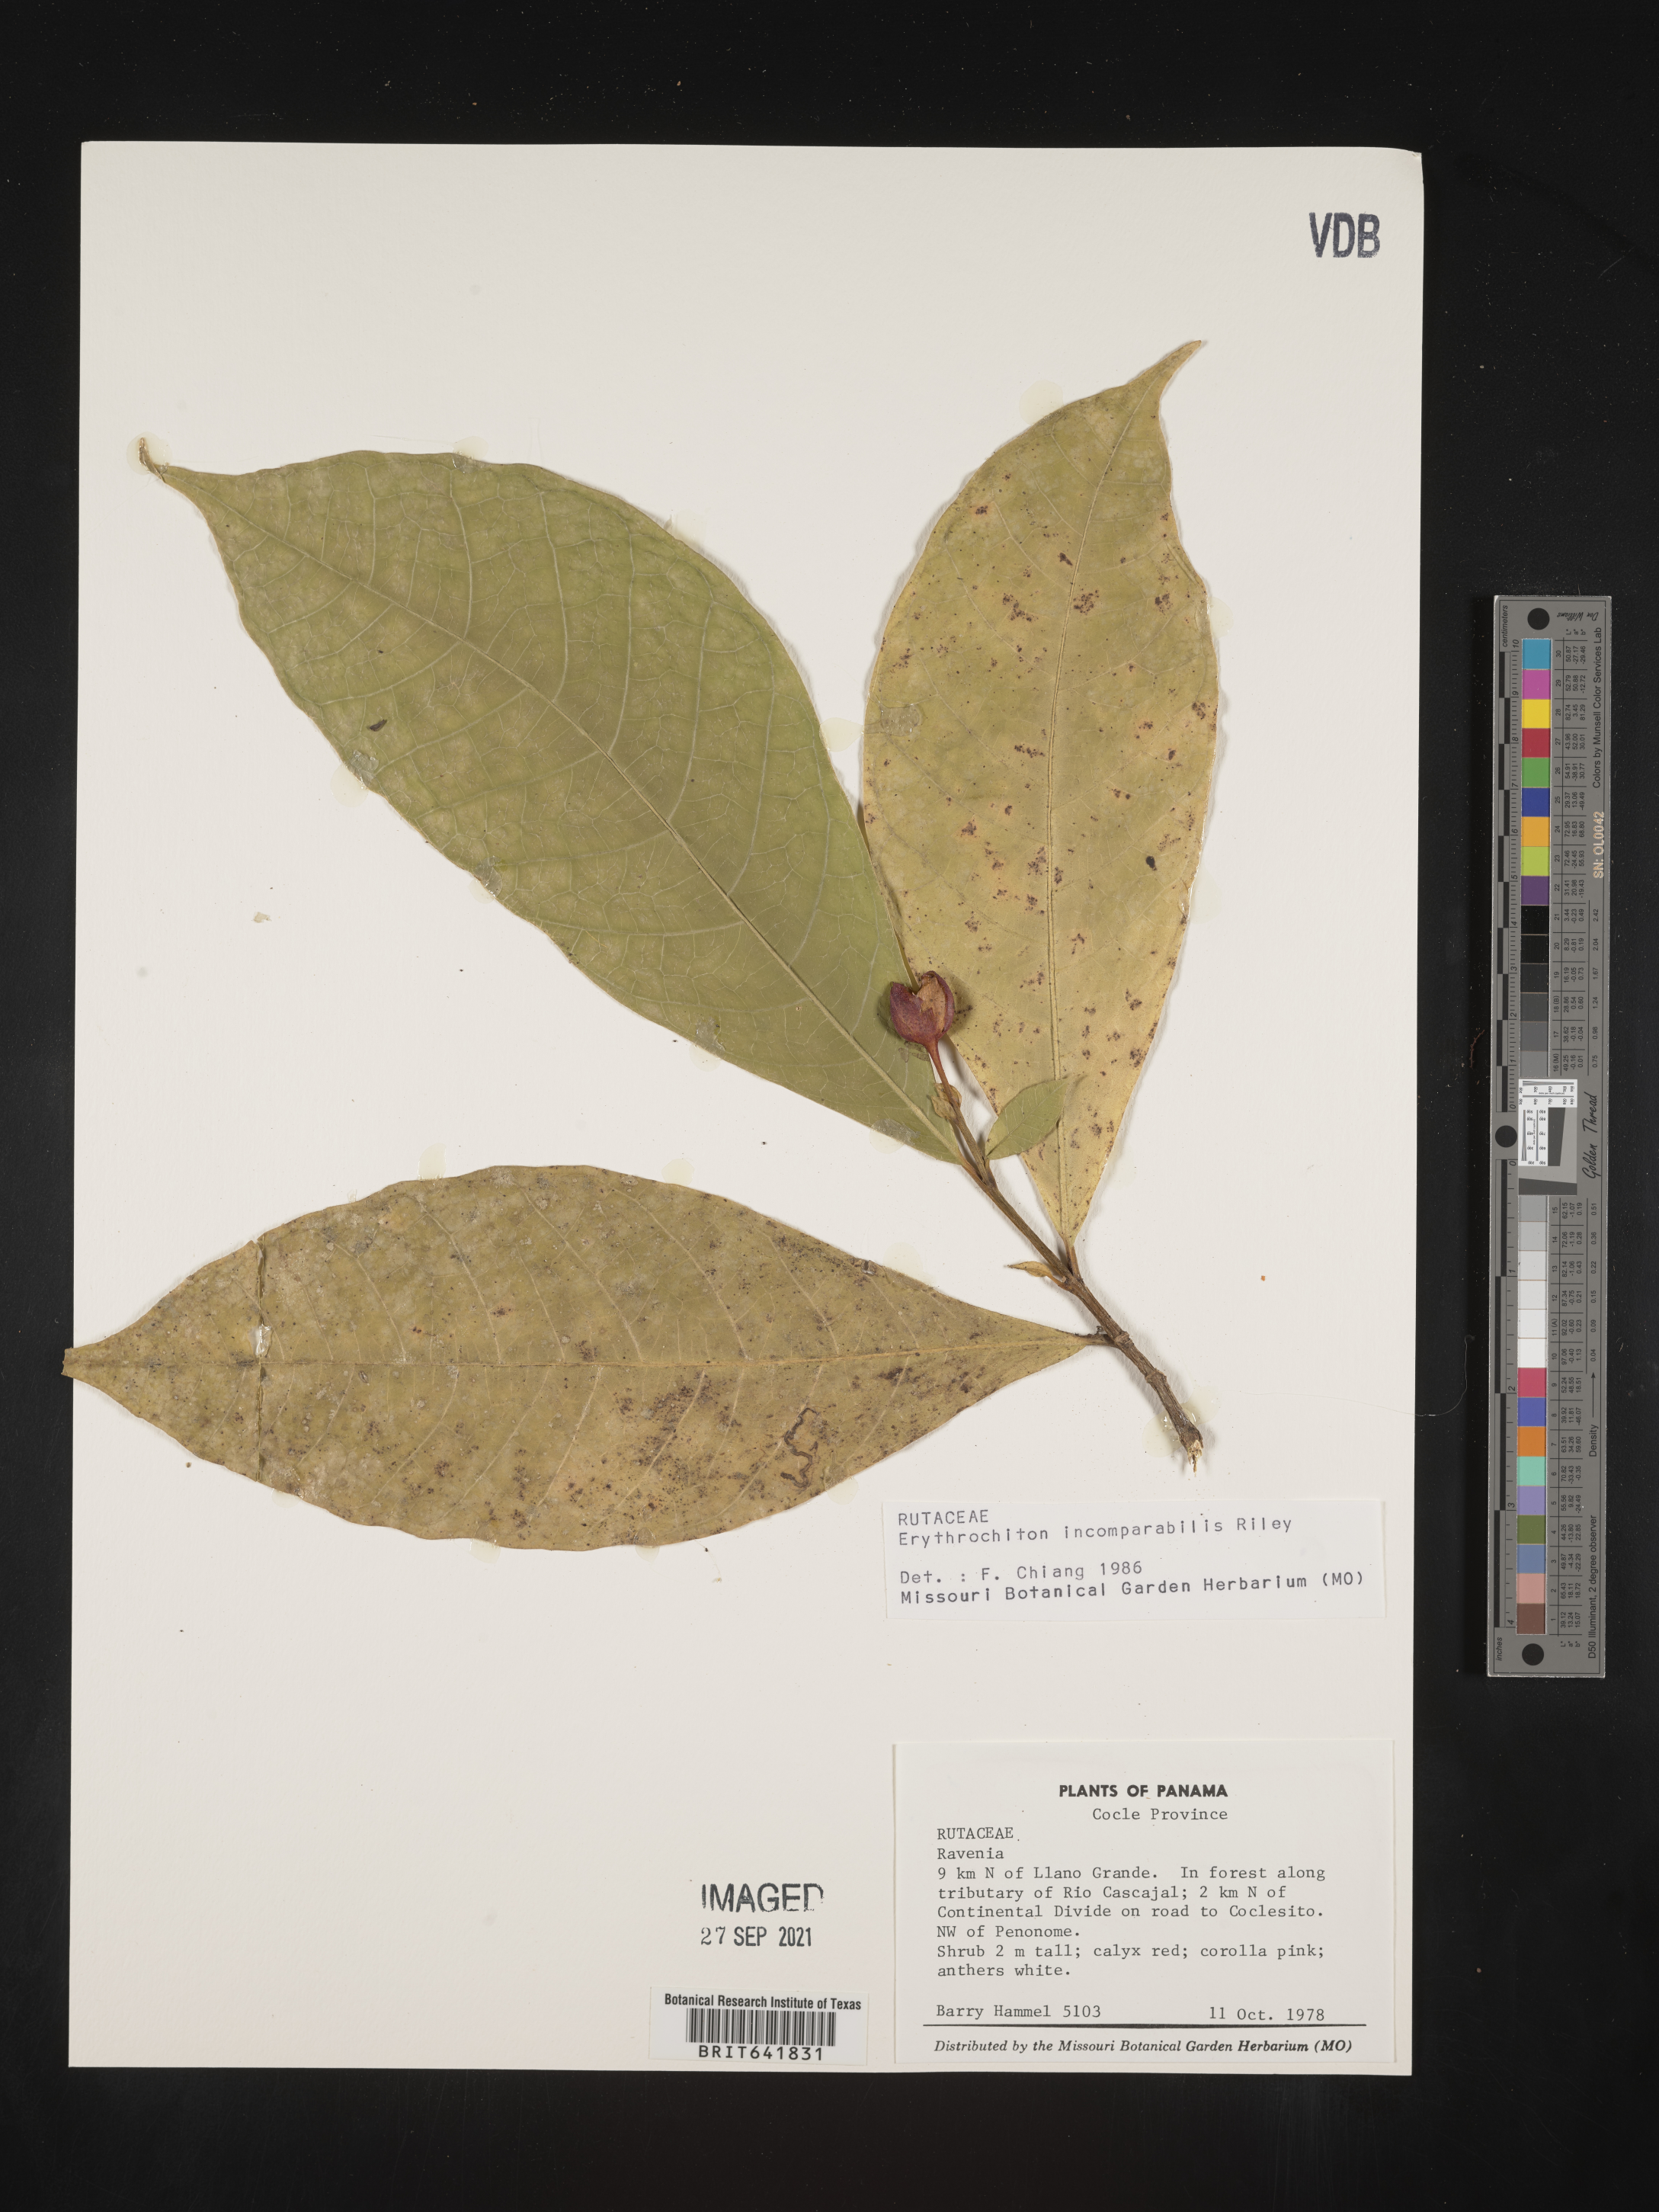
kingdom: Plantae
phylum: Tracheophyta
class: Magnoliopsida
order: Sapindales
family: Rutaceae
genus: Erythrochiton
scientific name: Erythrochiton
